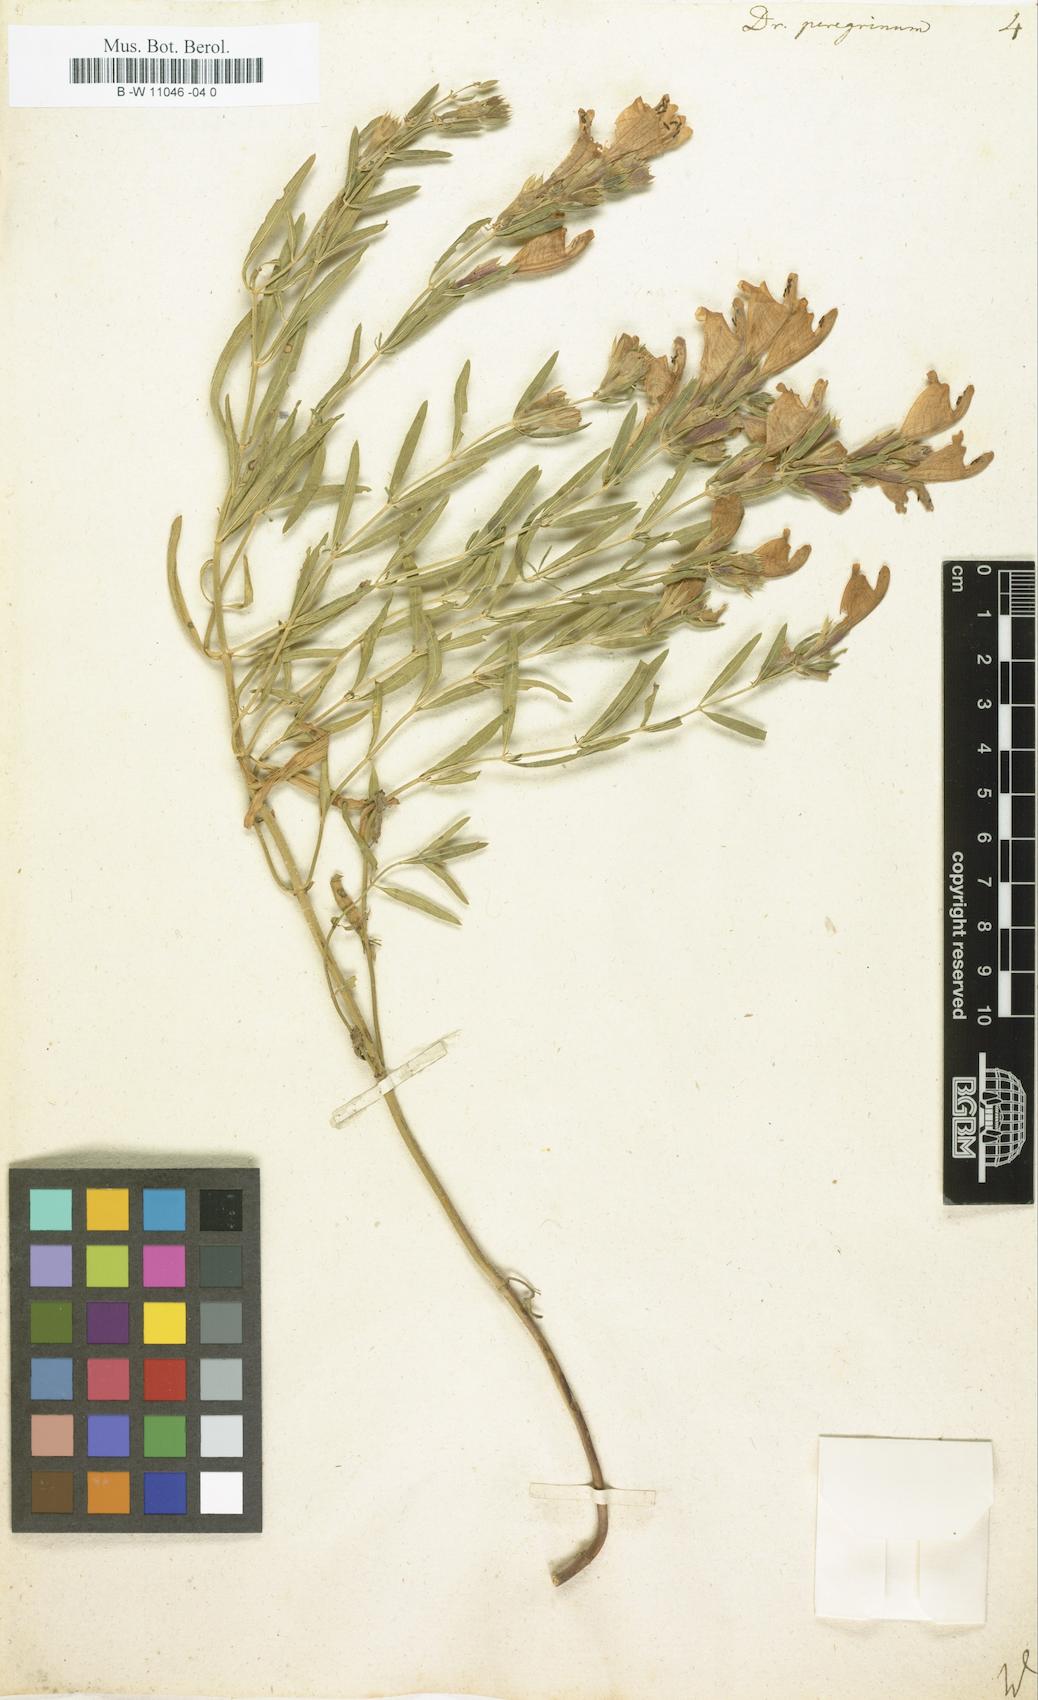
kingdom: Plantae
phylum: Tracheophyta
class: Magnoliopsida
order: Lamiales
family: Lamiaceae
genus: Dracocephalum
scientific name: Dracocephalum peregrinum
